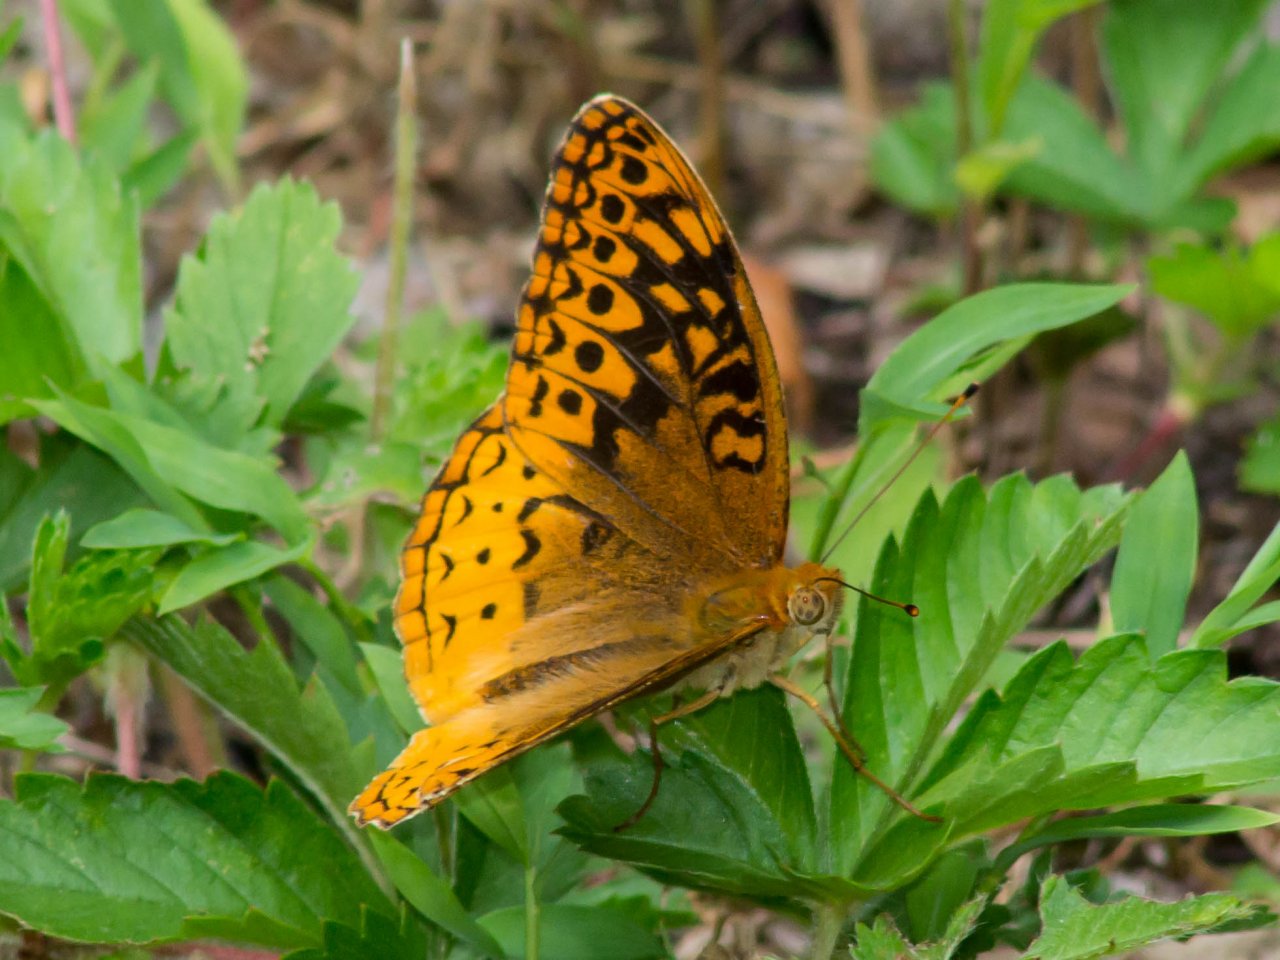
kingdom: Animalia
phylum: Arthropoda
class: Insecta
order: Lepidoptera
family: Nymphalidae
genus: Speyeria
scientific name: Speyeria cybele
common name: Great Spangled Fritillary
